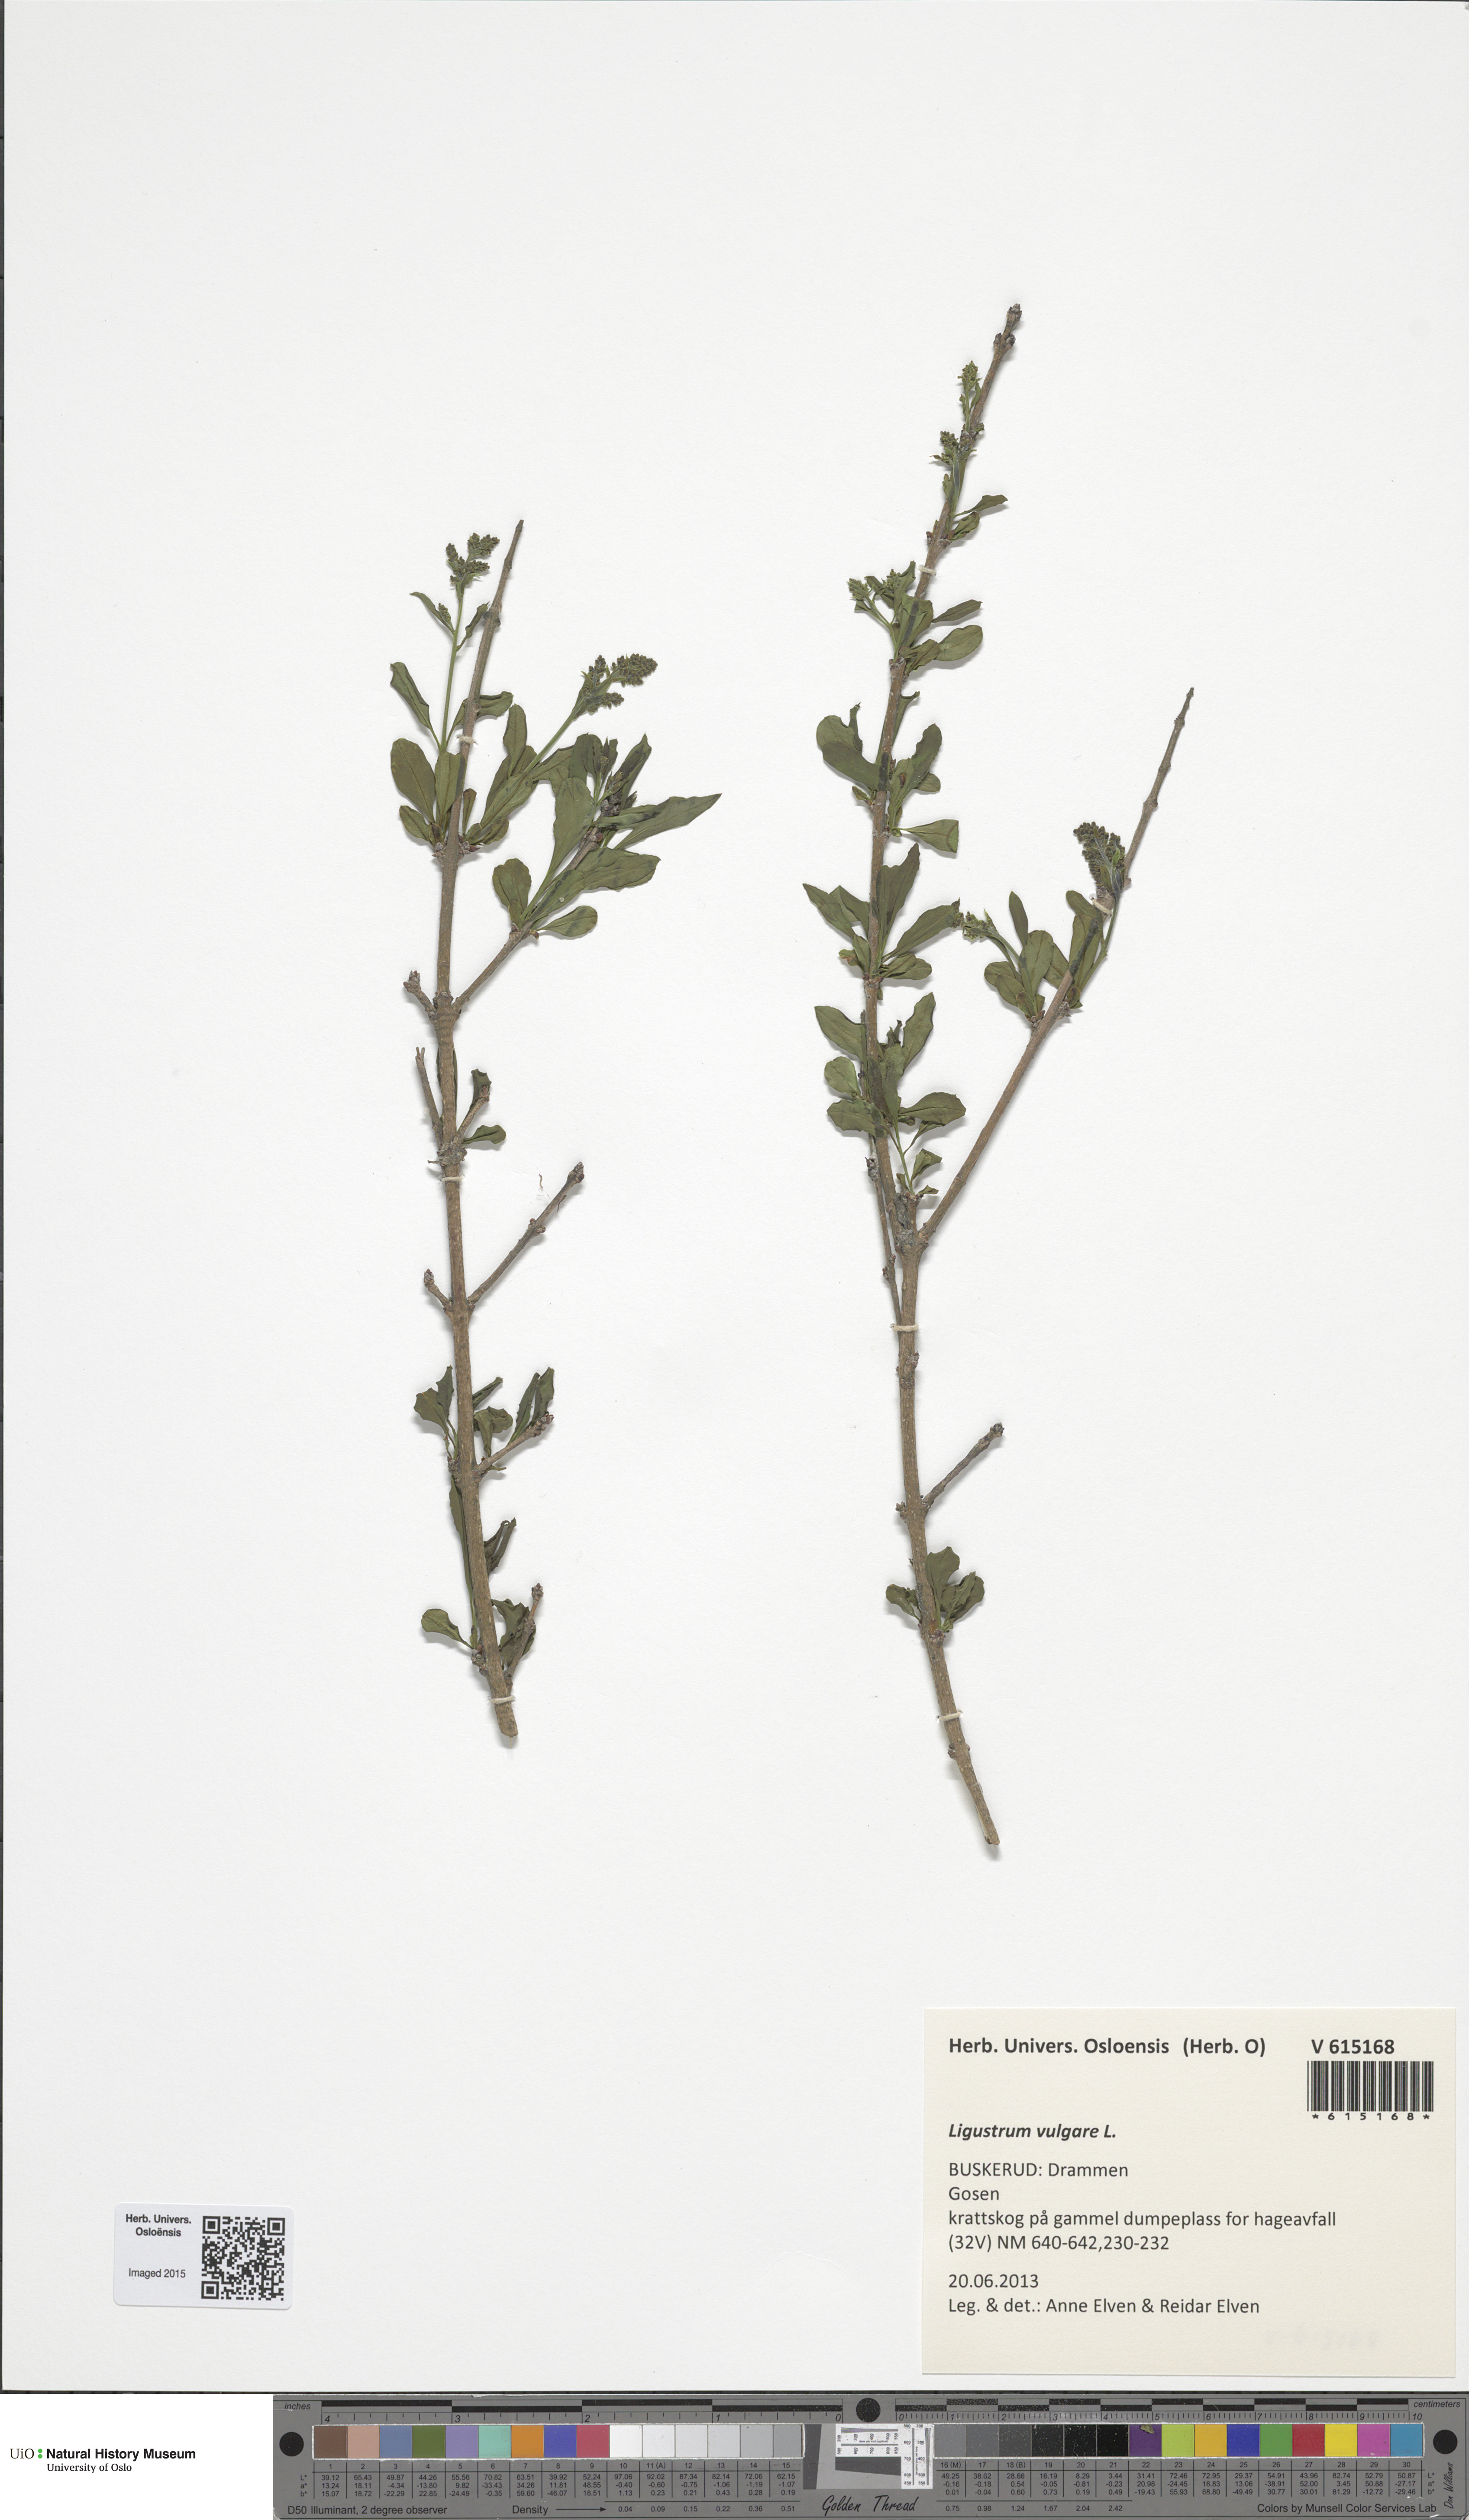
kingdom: Plantae
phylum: Tracheophyta
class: Magnoliopsida
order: Lamiales
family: Oleaceae
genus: Ligustrum
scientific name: Ligustrum vulgare
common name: Wild privet
